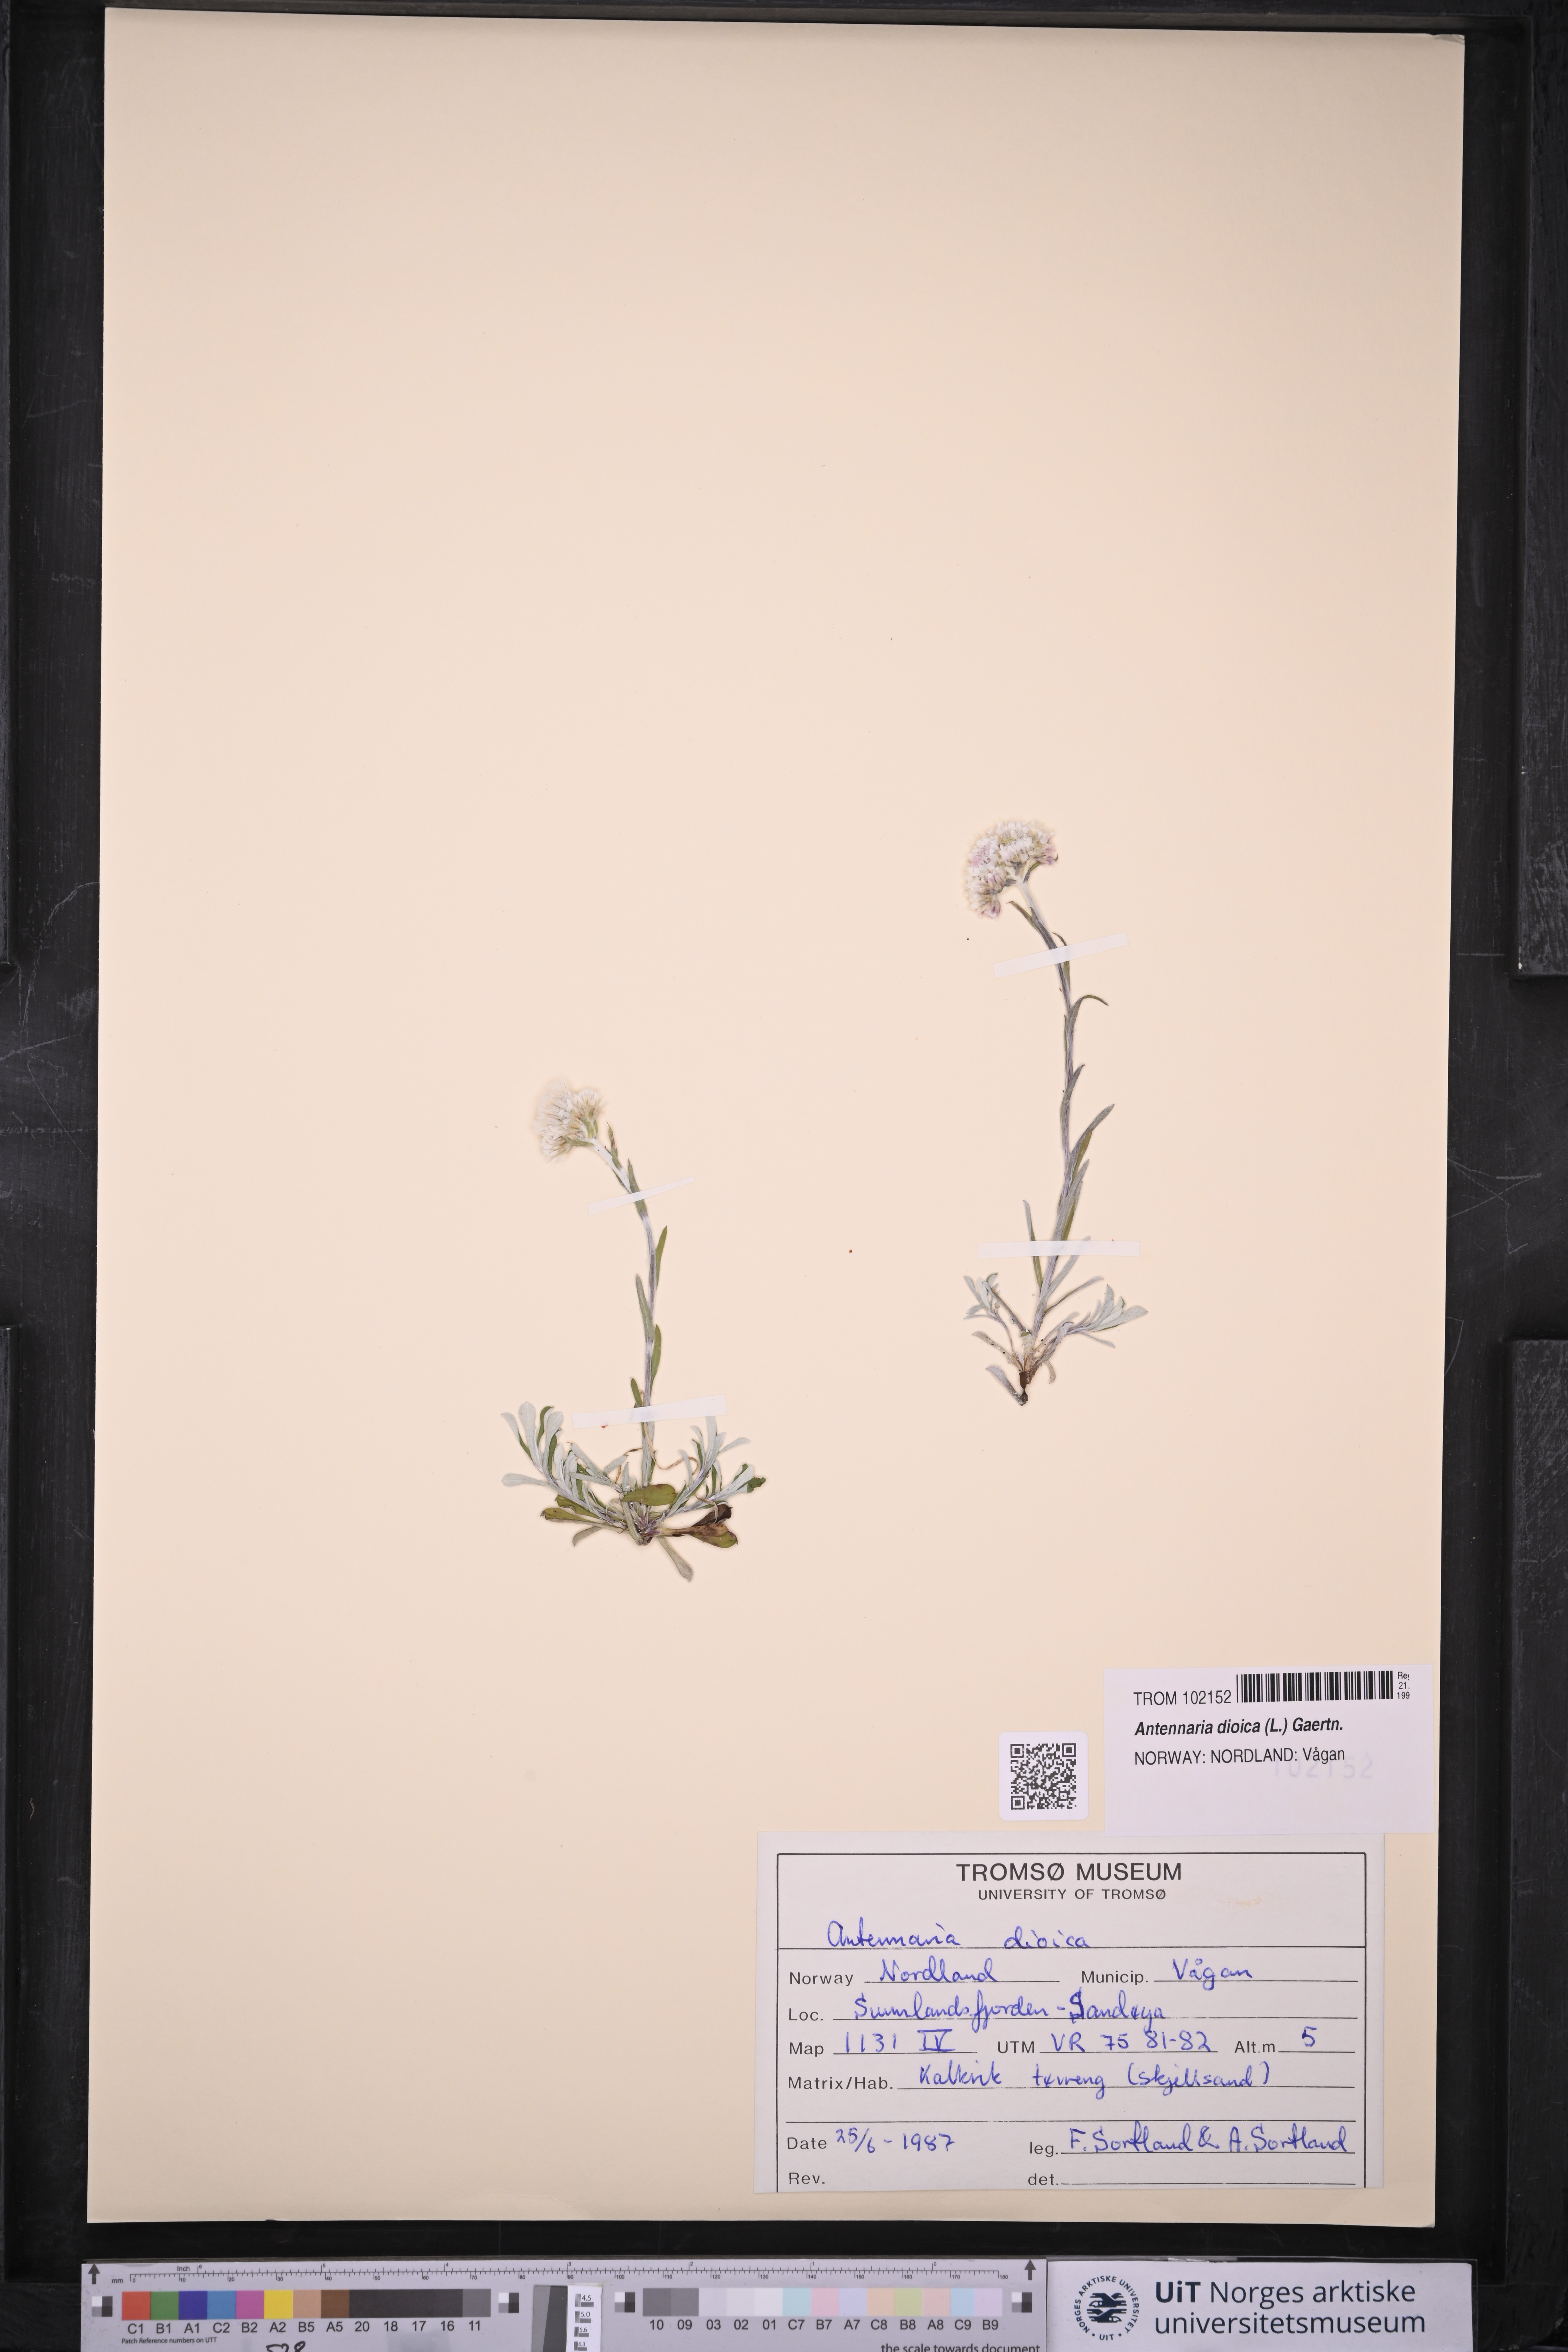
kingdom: Plantae
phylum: Tracheophyta
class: Magnoliopsida
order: Asterales
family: Asteraceae
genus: Antennaria
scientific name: Antennaria dioica
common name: Mountain everlasting
